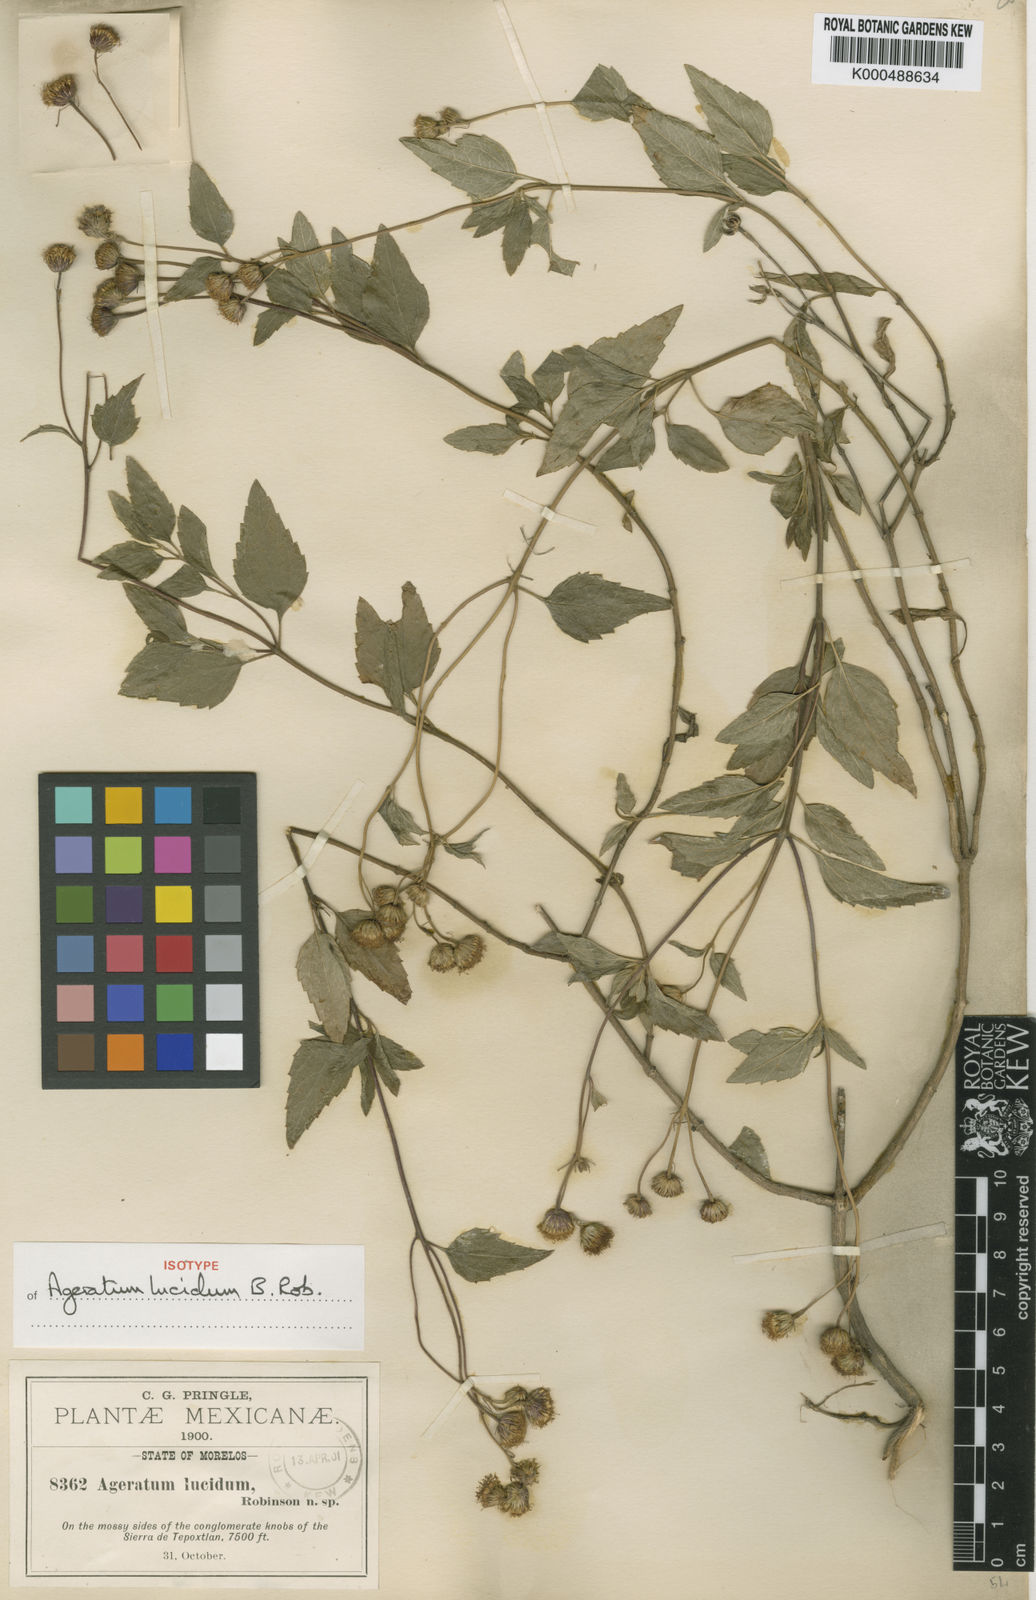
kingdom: Plantae
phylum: Tracheophyta
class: Magnoliopsida
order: Asterales
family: Asteraceae
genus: Ageratum
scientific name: Ageratum corymbosum
